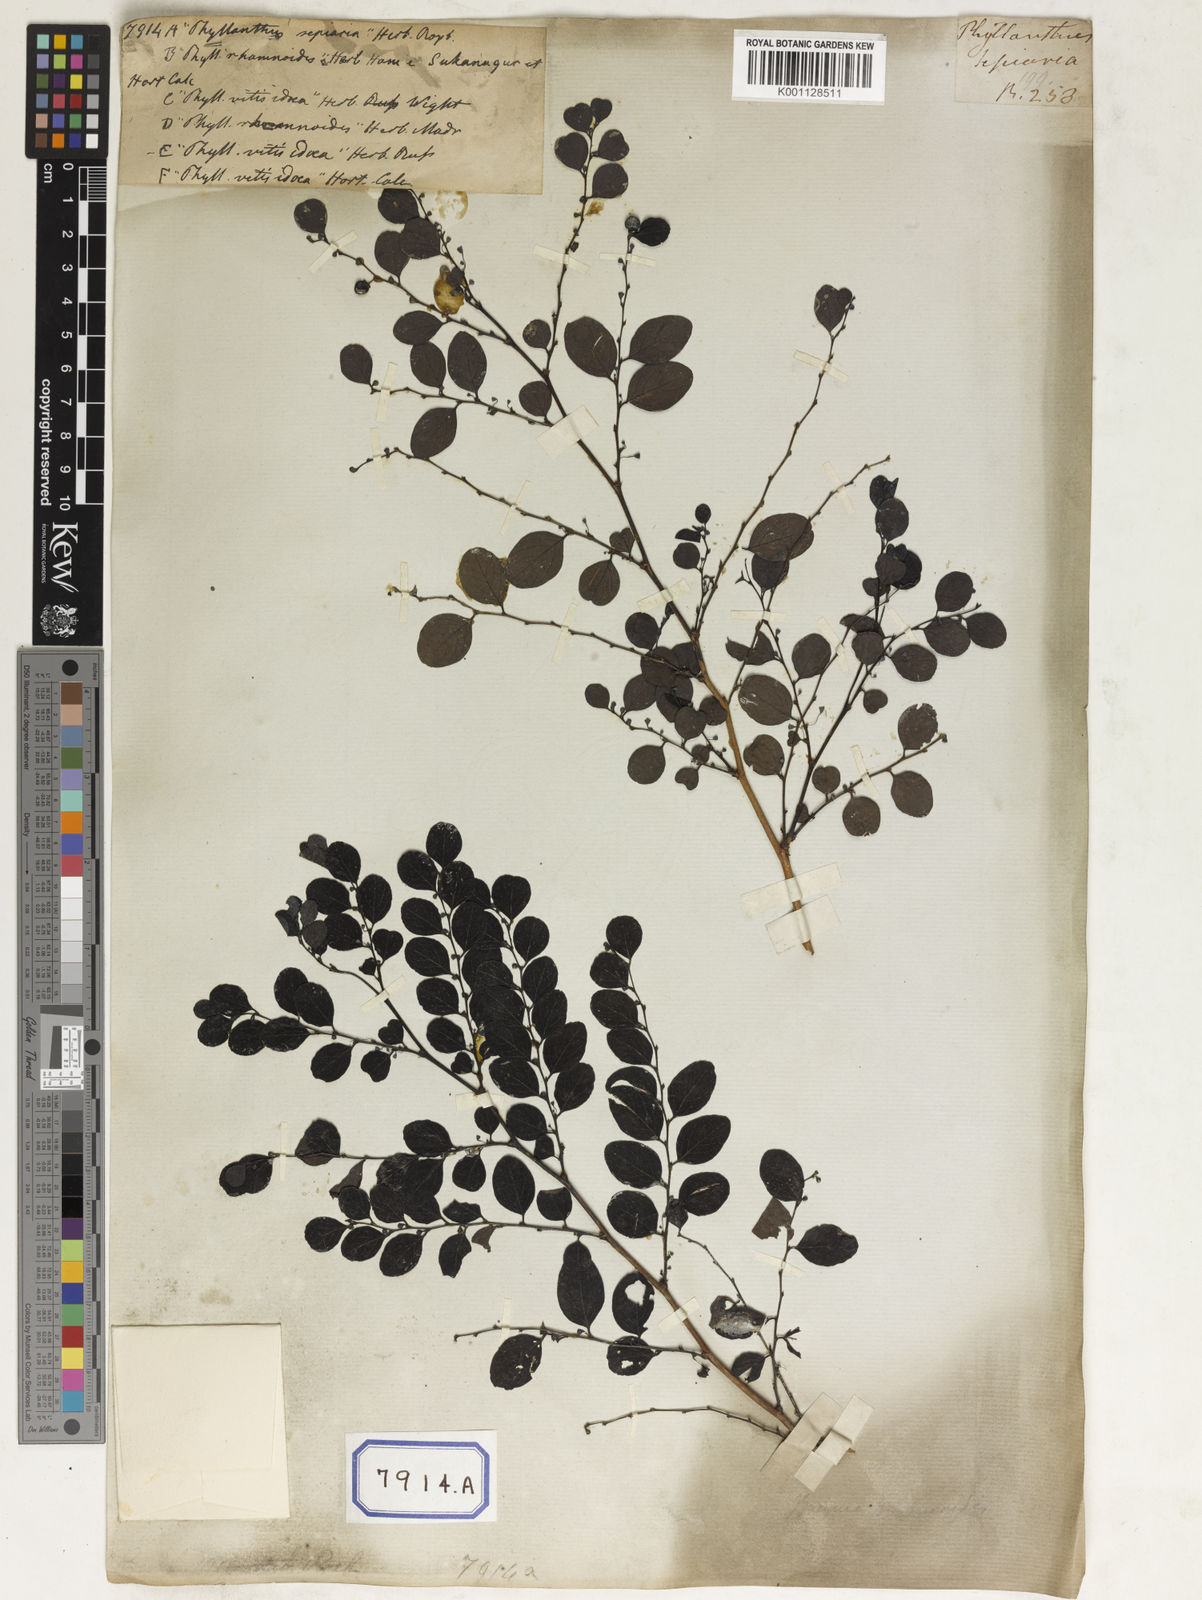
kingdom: Plantae
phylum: Tracheophyta
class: Magnoliopsida
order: Malpighiales
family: Euphorbiaceae
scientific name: Euphorbiaceae
